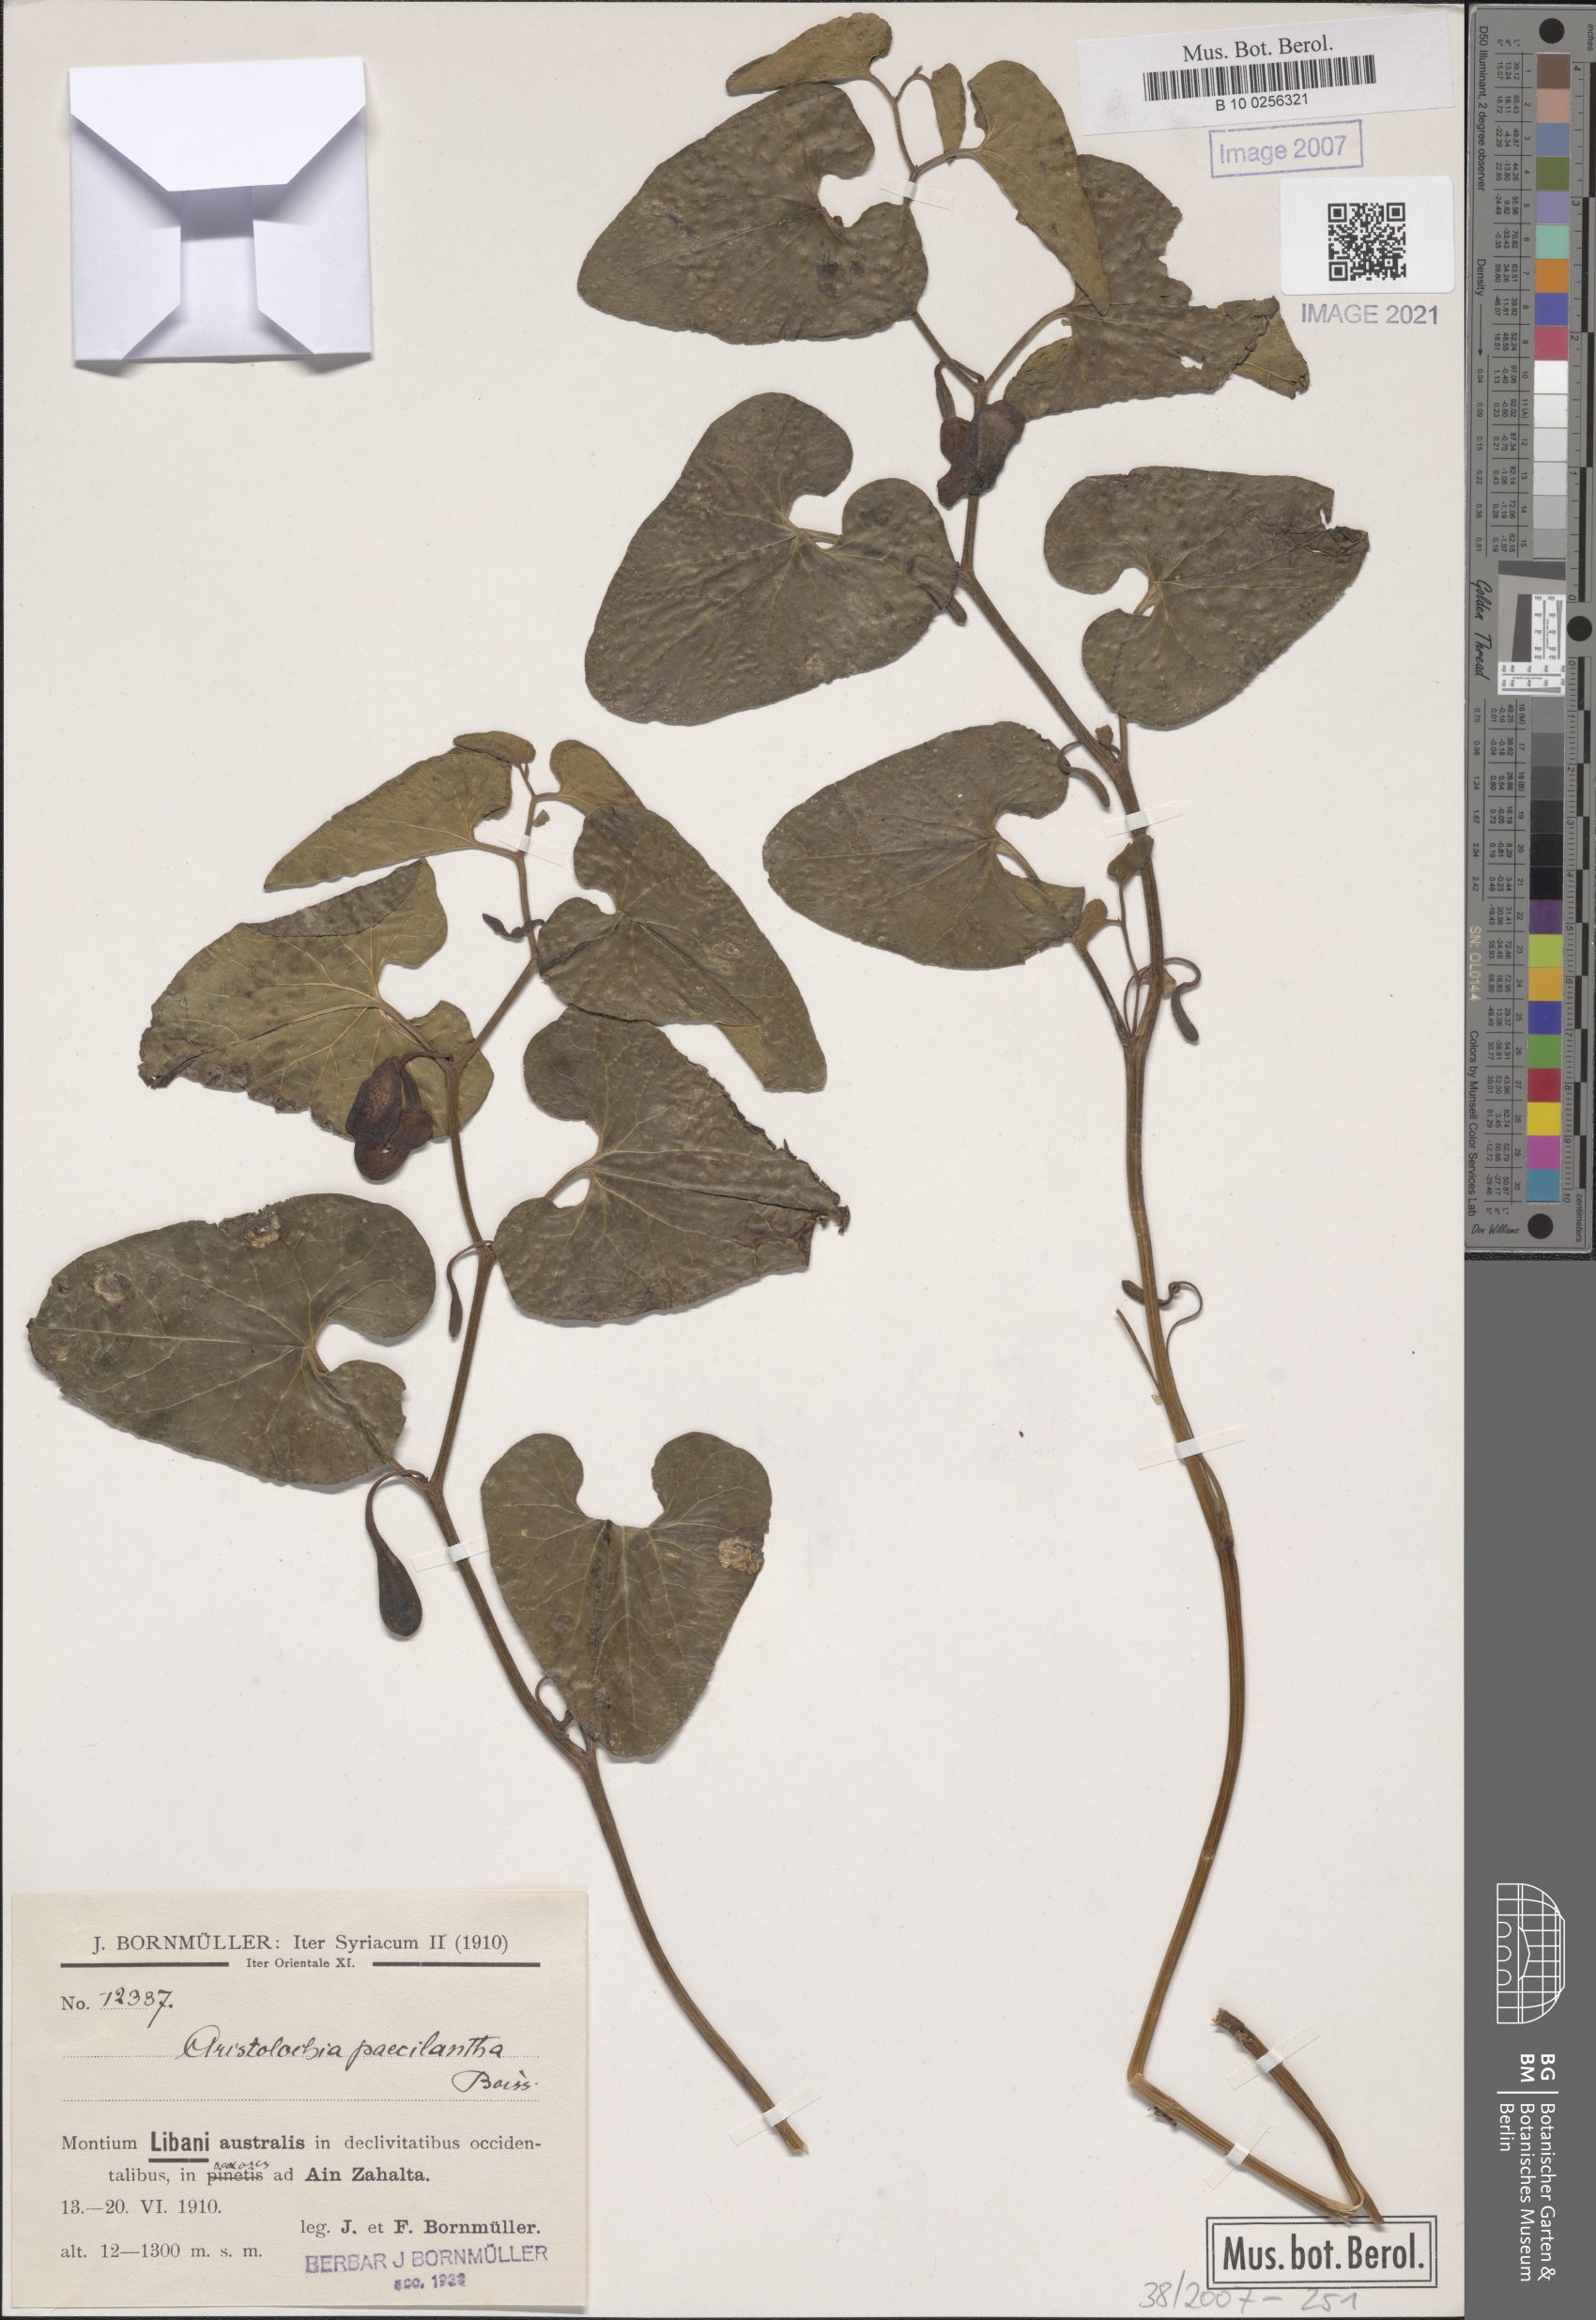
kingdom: Plantae
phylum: Tracheophyta
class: Magnoliopsida
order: Piperales
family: Aristolochiaceae
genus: Aristolochia
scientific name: Aristolochia paecilantha
